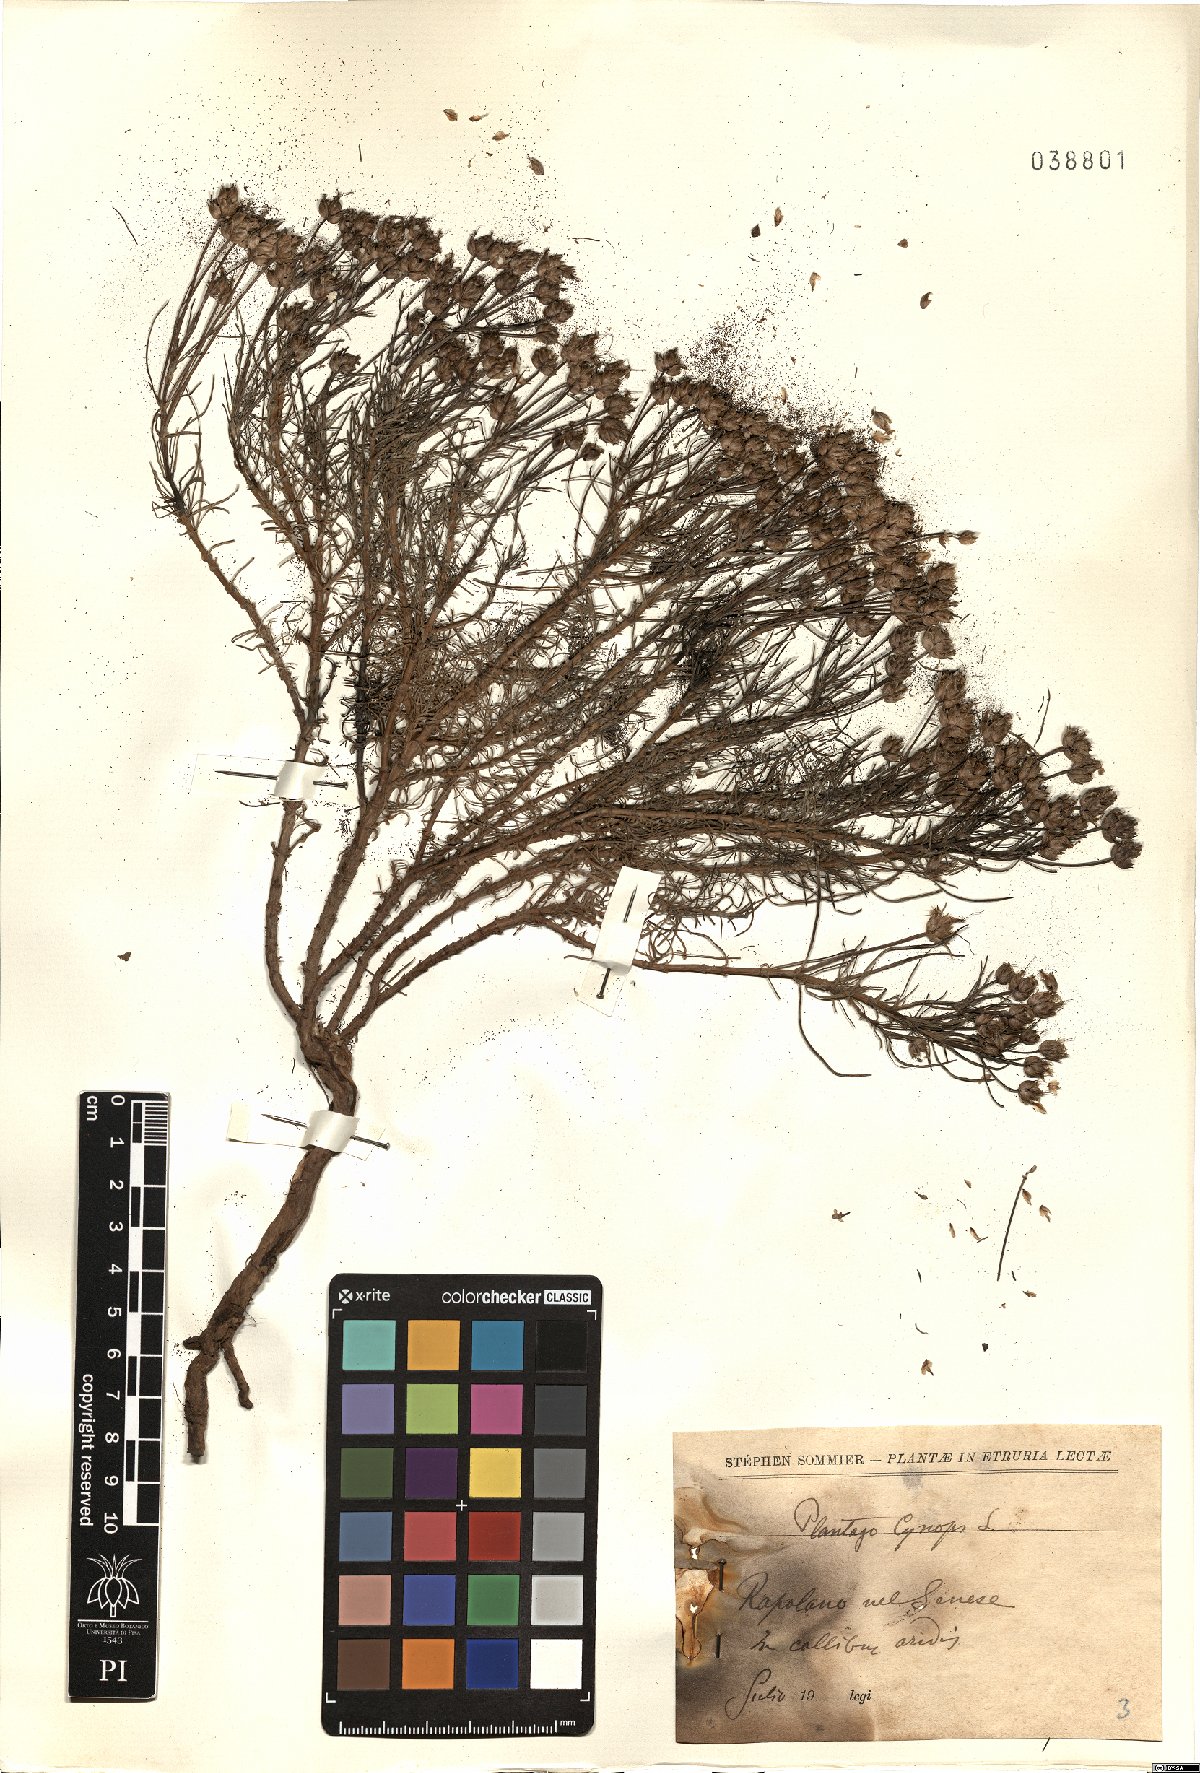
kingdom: Plantae
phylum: Tracheophyta
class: Magnoliopsida
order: Lamiales
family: Plantaginaceae
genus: Plantago
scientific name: Plantago sempervirens
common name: Shrubby plantain
